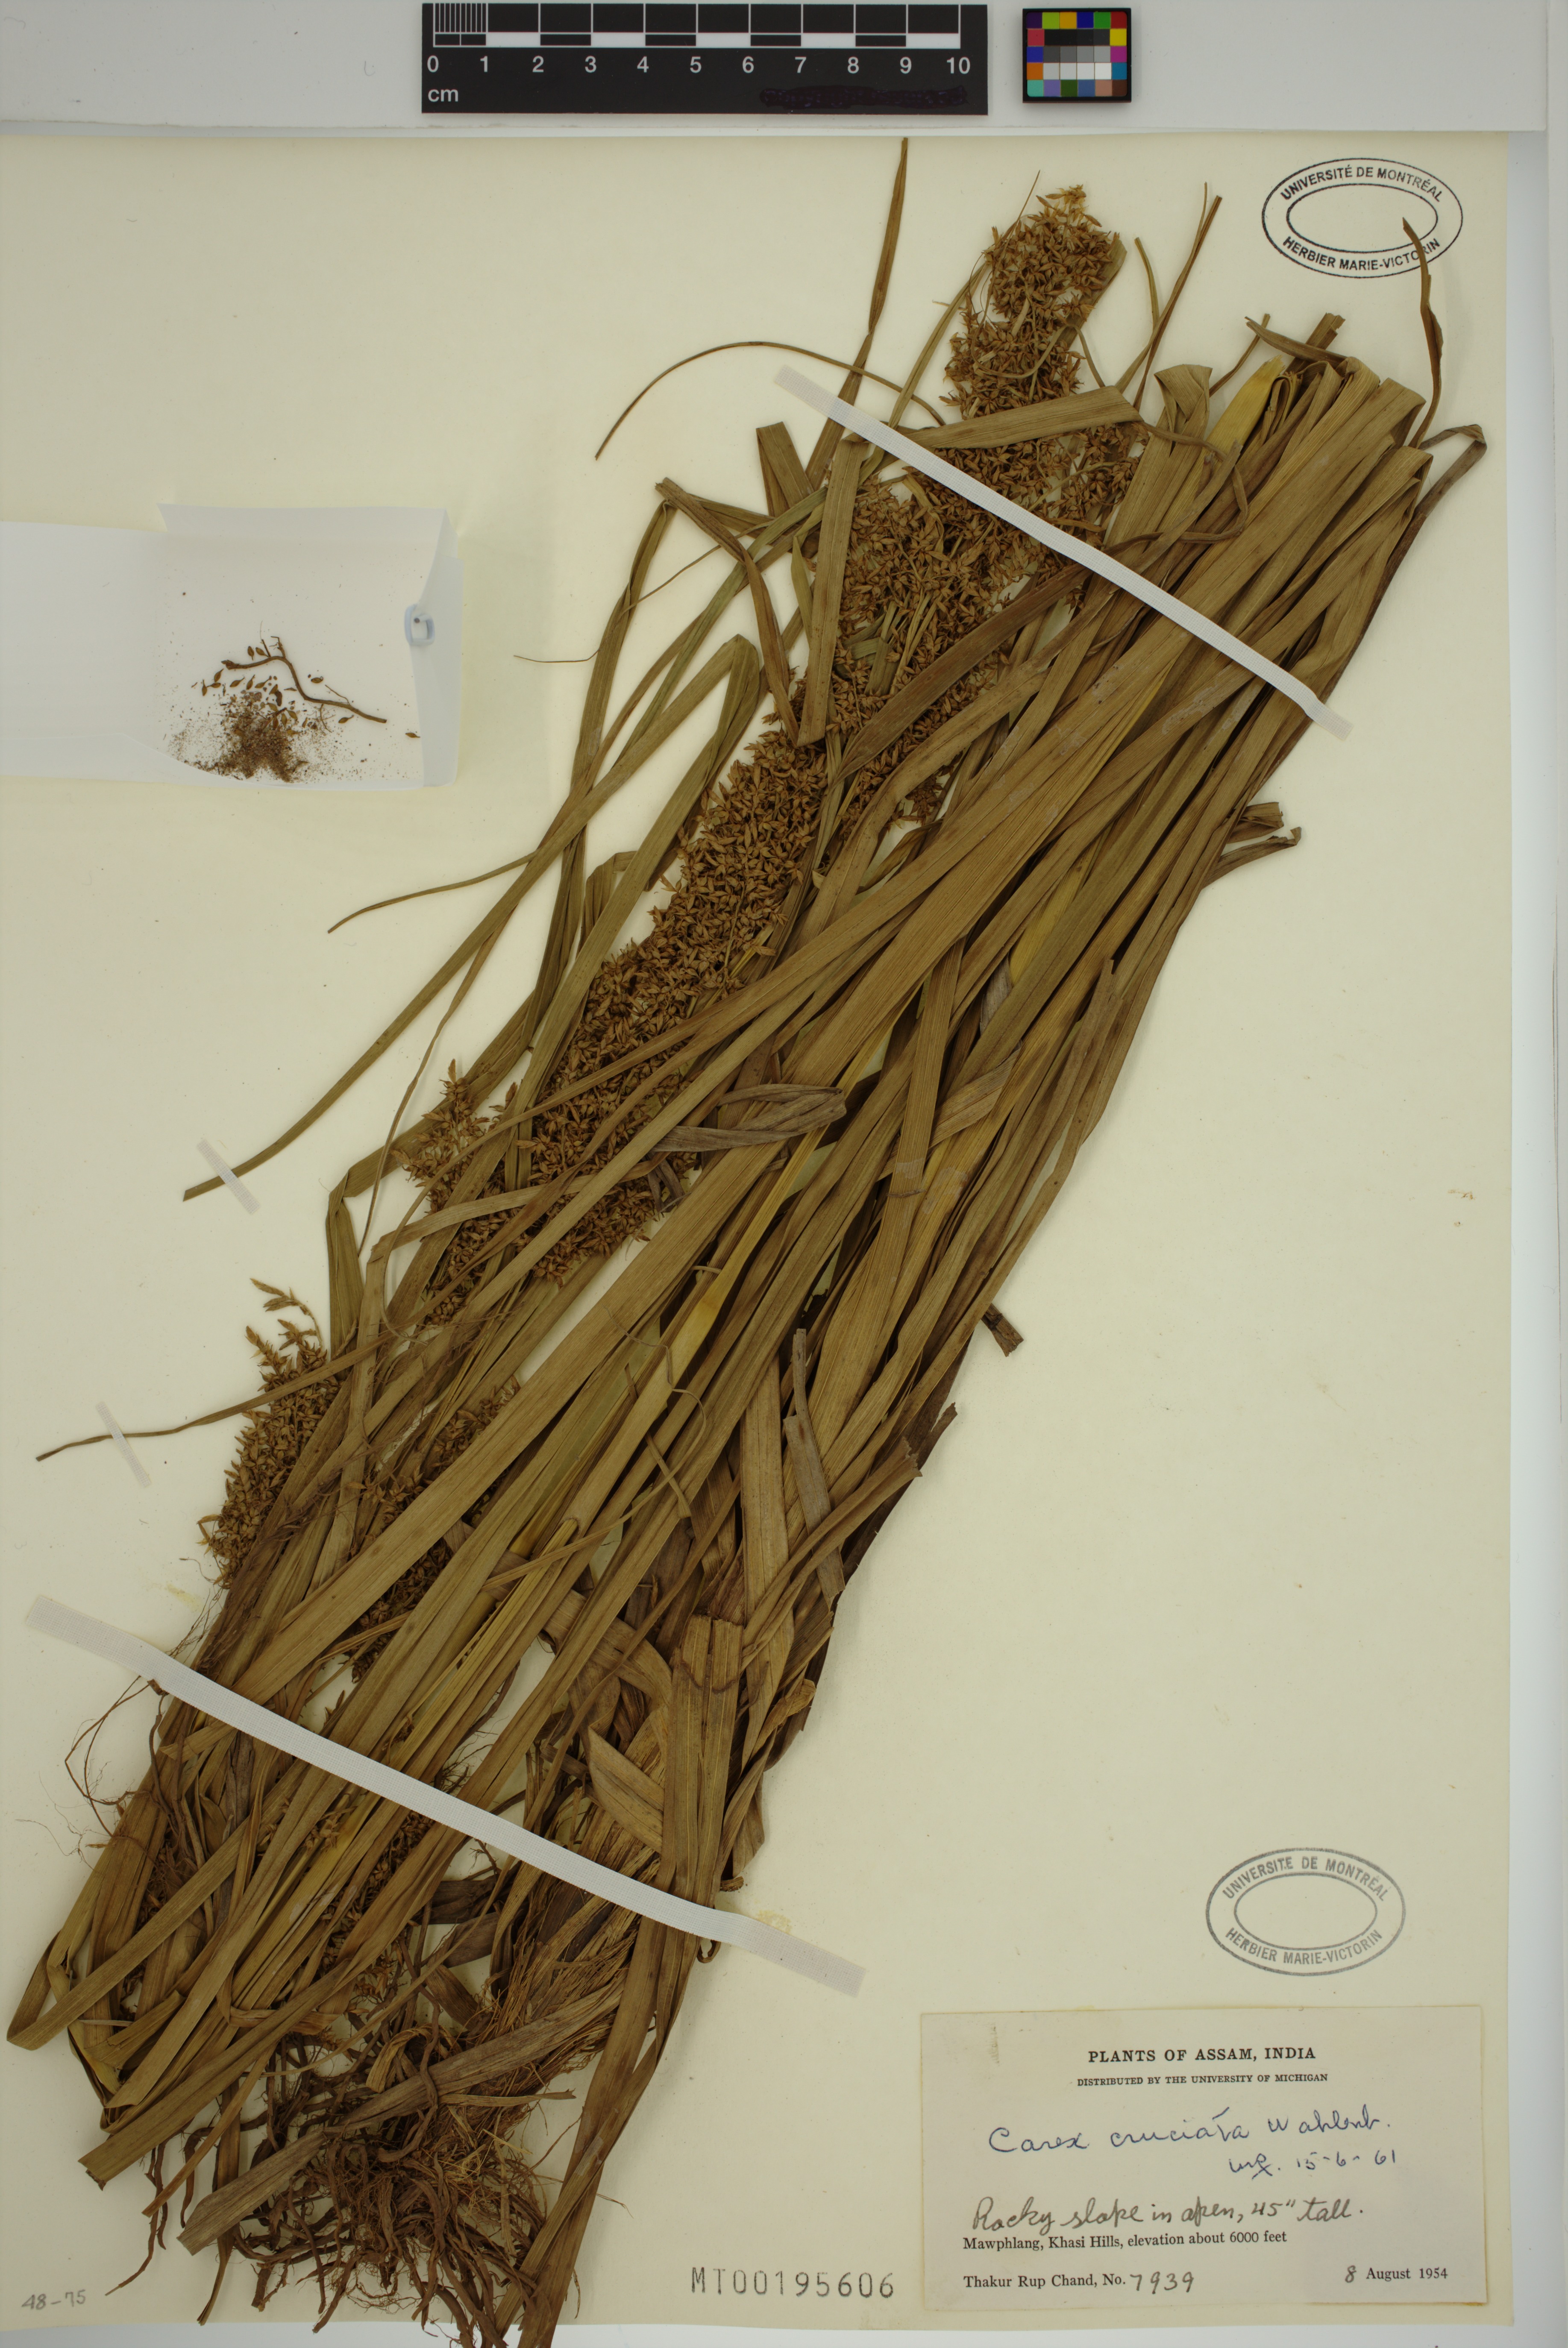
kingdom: Plantae
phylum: Tracheophyta
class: Liliopsida
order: Poales
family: Cyperaceae
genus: Carex
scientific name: Carex cruciata
